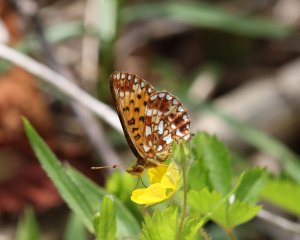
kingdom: Animalia
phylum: Arthropoda
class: Insecta
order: Lepidoptera
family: Nymphalidae
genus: Boloria
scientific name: Boloria selene
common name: Silver-bordered Fritillary
